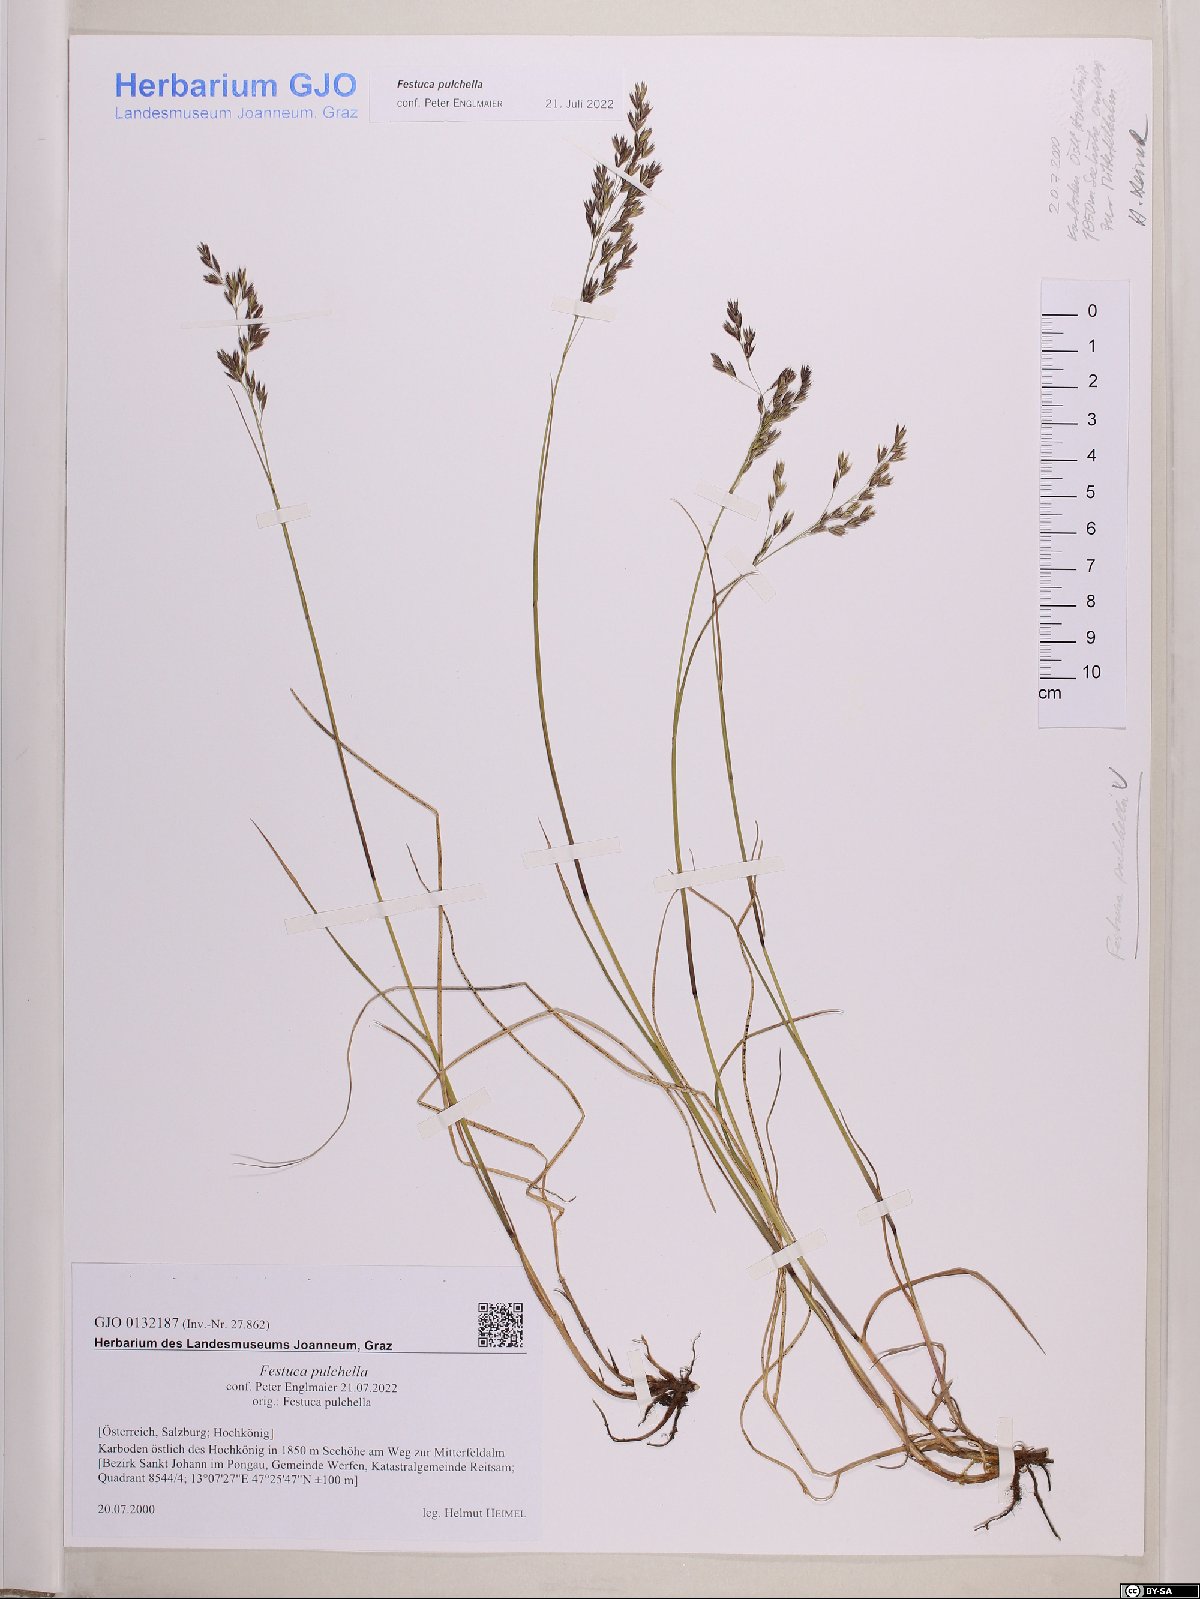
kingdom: Plantae
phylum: Tracheophyta
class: Liliopsida
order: Poales
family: Poaceae
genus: Festuca
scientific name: Festuca pulchella
